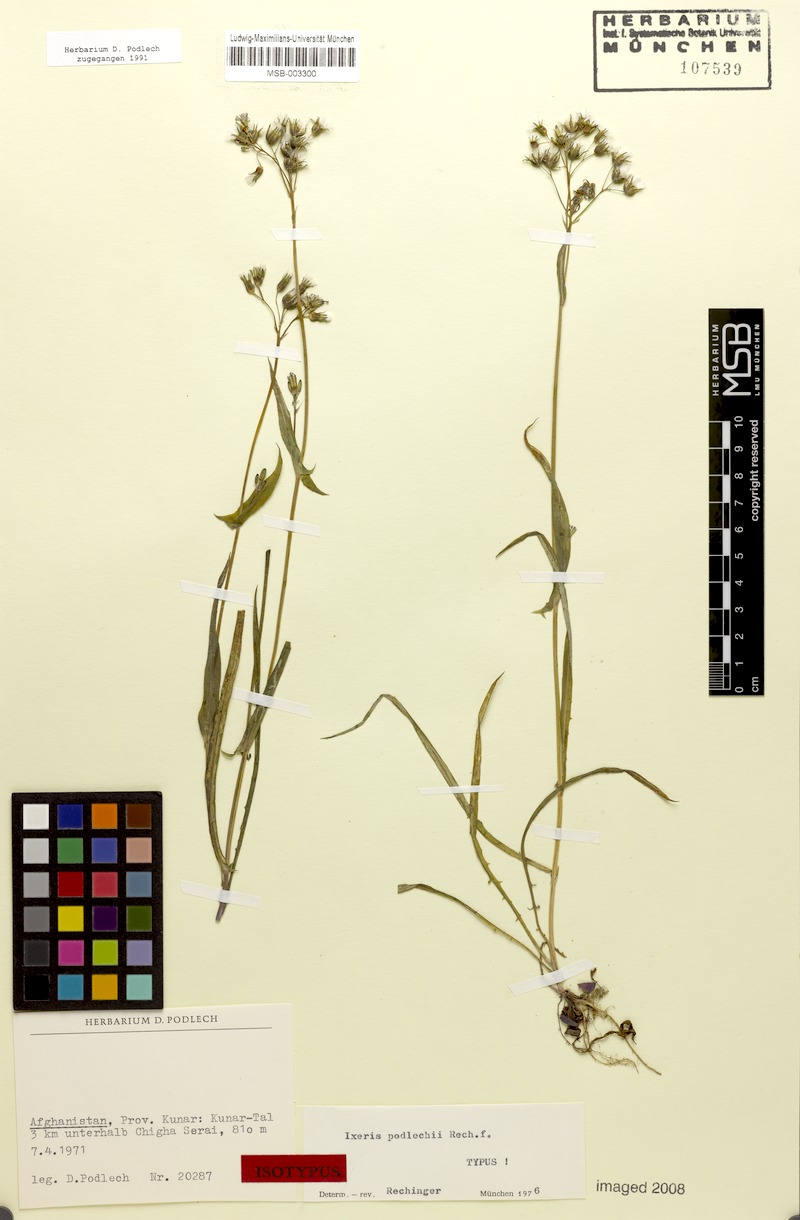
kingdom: Plantae
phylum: Tracheophyta
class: Magnoliopsida
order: Asterales
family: Asteraceae
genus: Ixeris
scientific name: Ixeris polycephala
